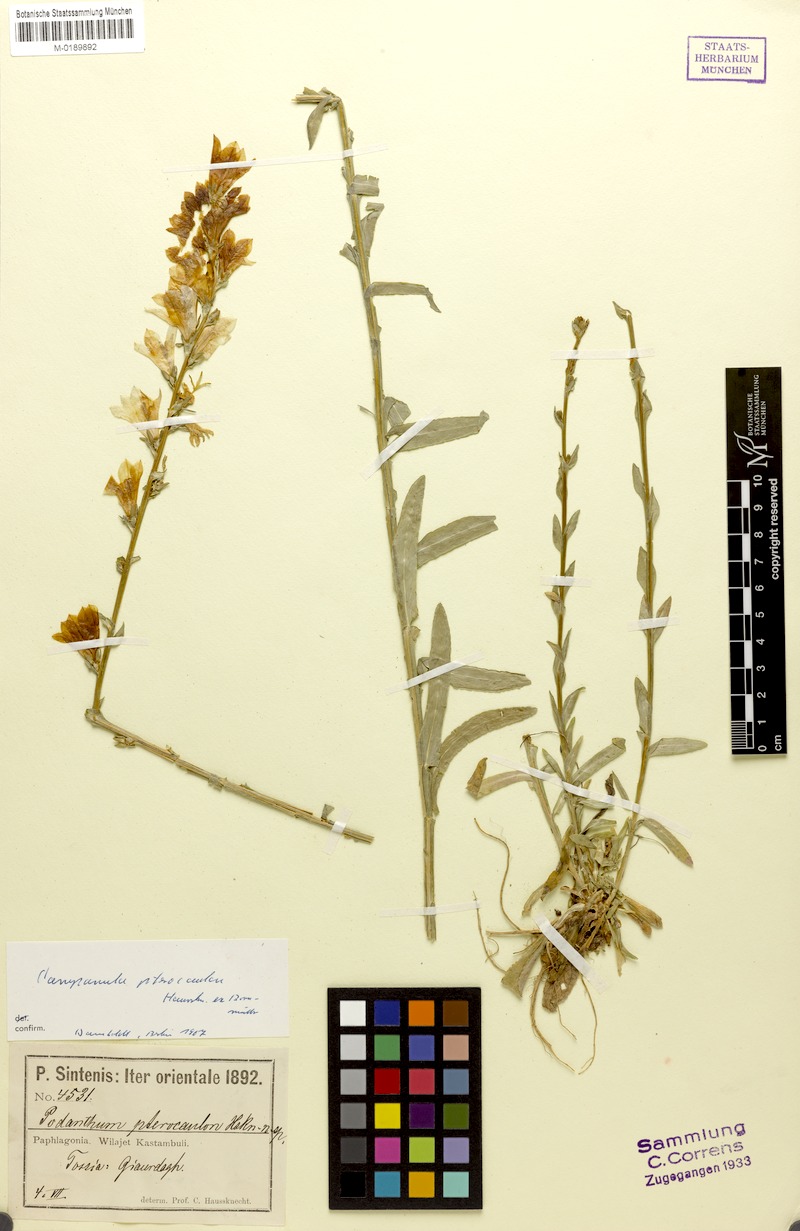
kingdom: Plantae
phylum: Tracheophyta
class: Magnoliopsida
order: Asterales
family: Campanulaceae
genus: Campanula
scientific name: Campanula pterocaula
